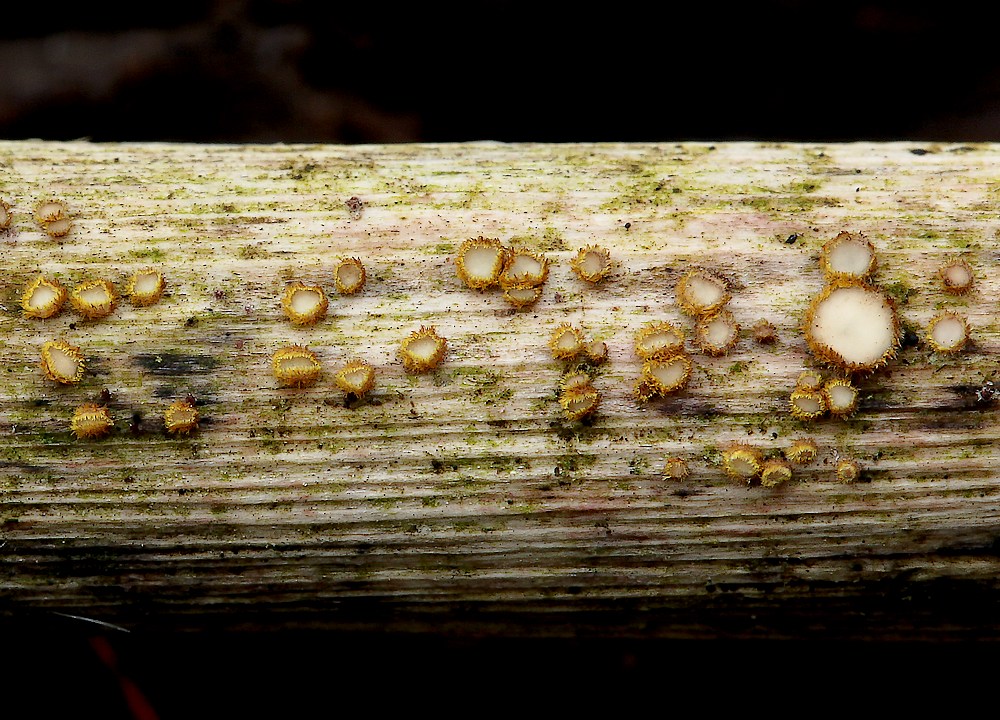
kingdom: Fungi
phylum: Ascomycota
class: Leotiomycetes
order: Helotiales
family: Lachnaceae
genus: Lachnum
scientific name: Lachnum sulphureum
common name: svovlhåret frynseskive
